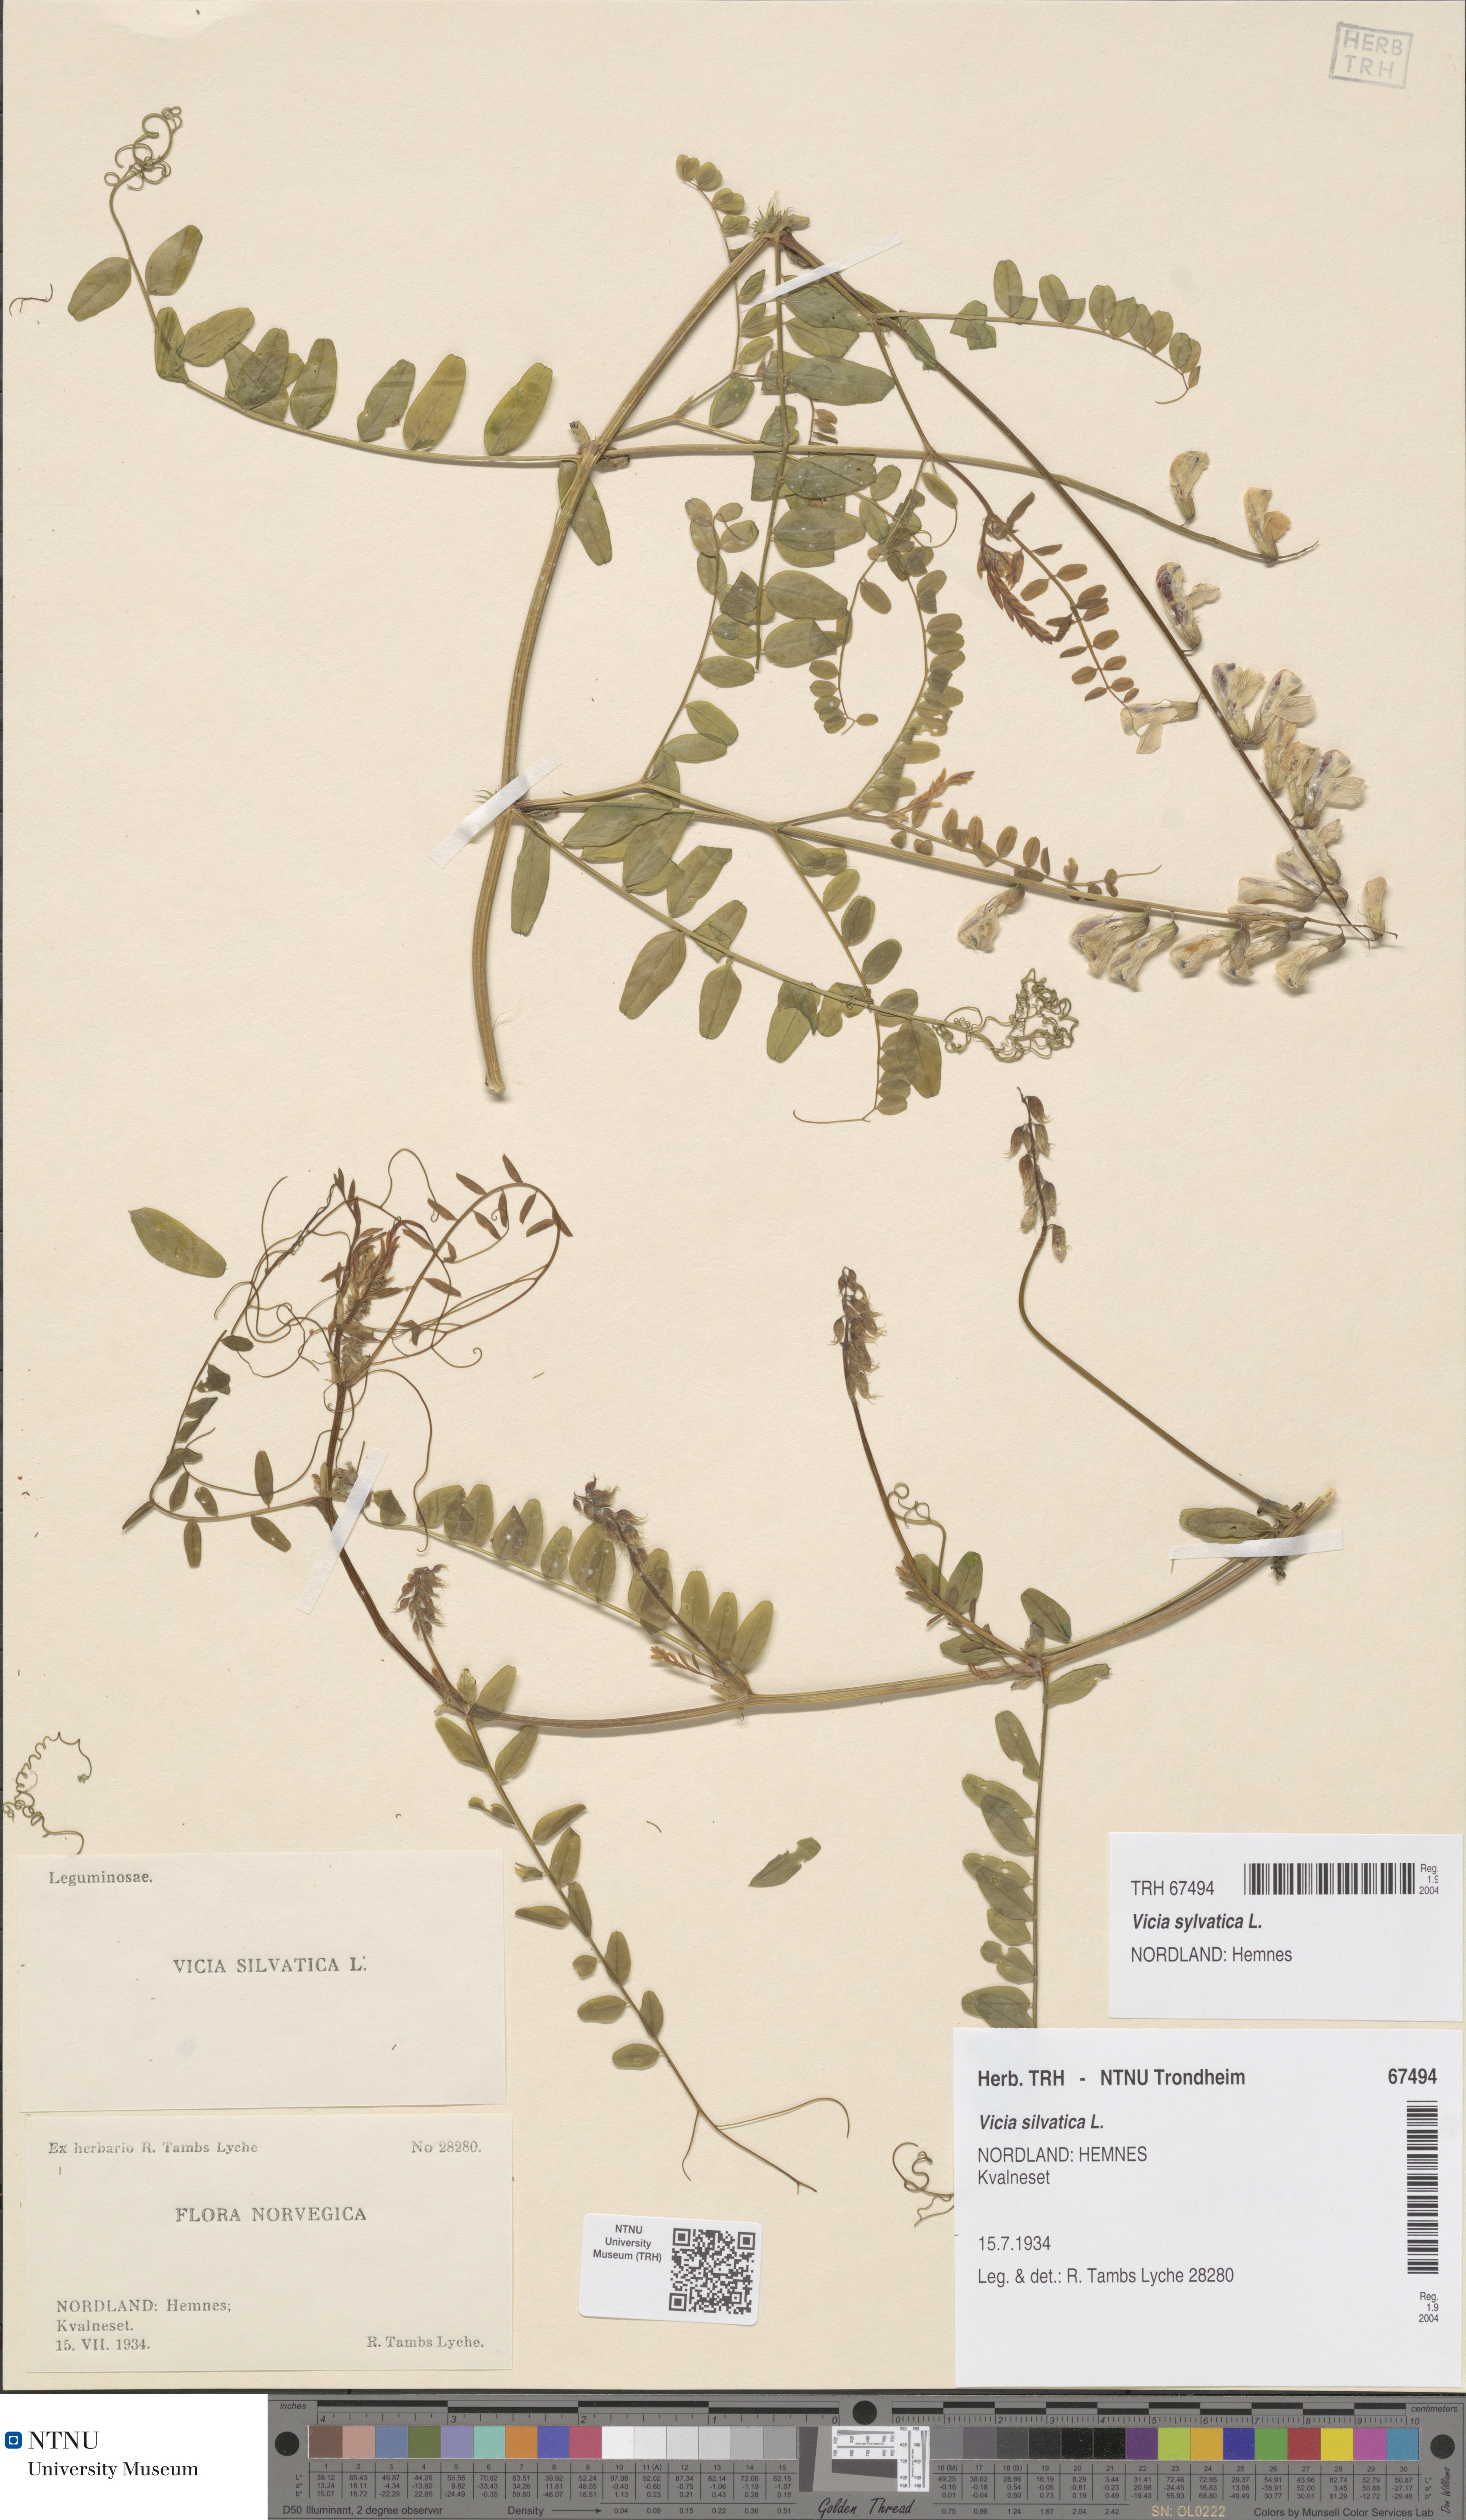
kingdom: Plantae
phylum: Tracheophyta
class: Magnoliopsida
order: Fabales
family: Fabaceae
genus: Vicia
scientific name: Vicia sylvatica
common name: Wood vetch
